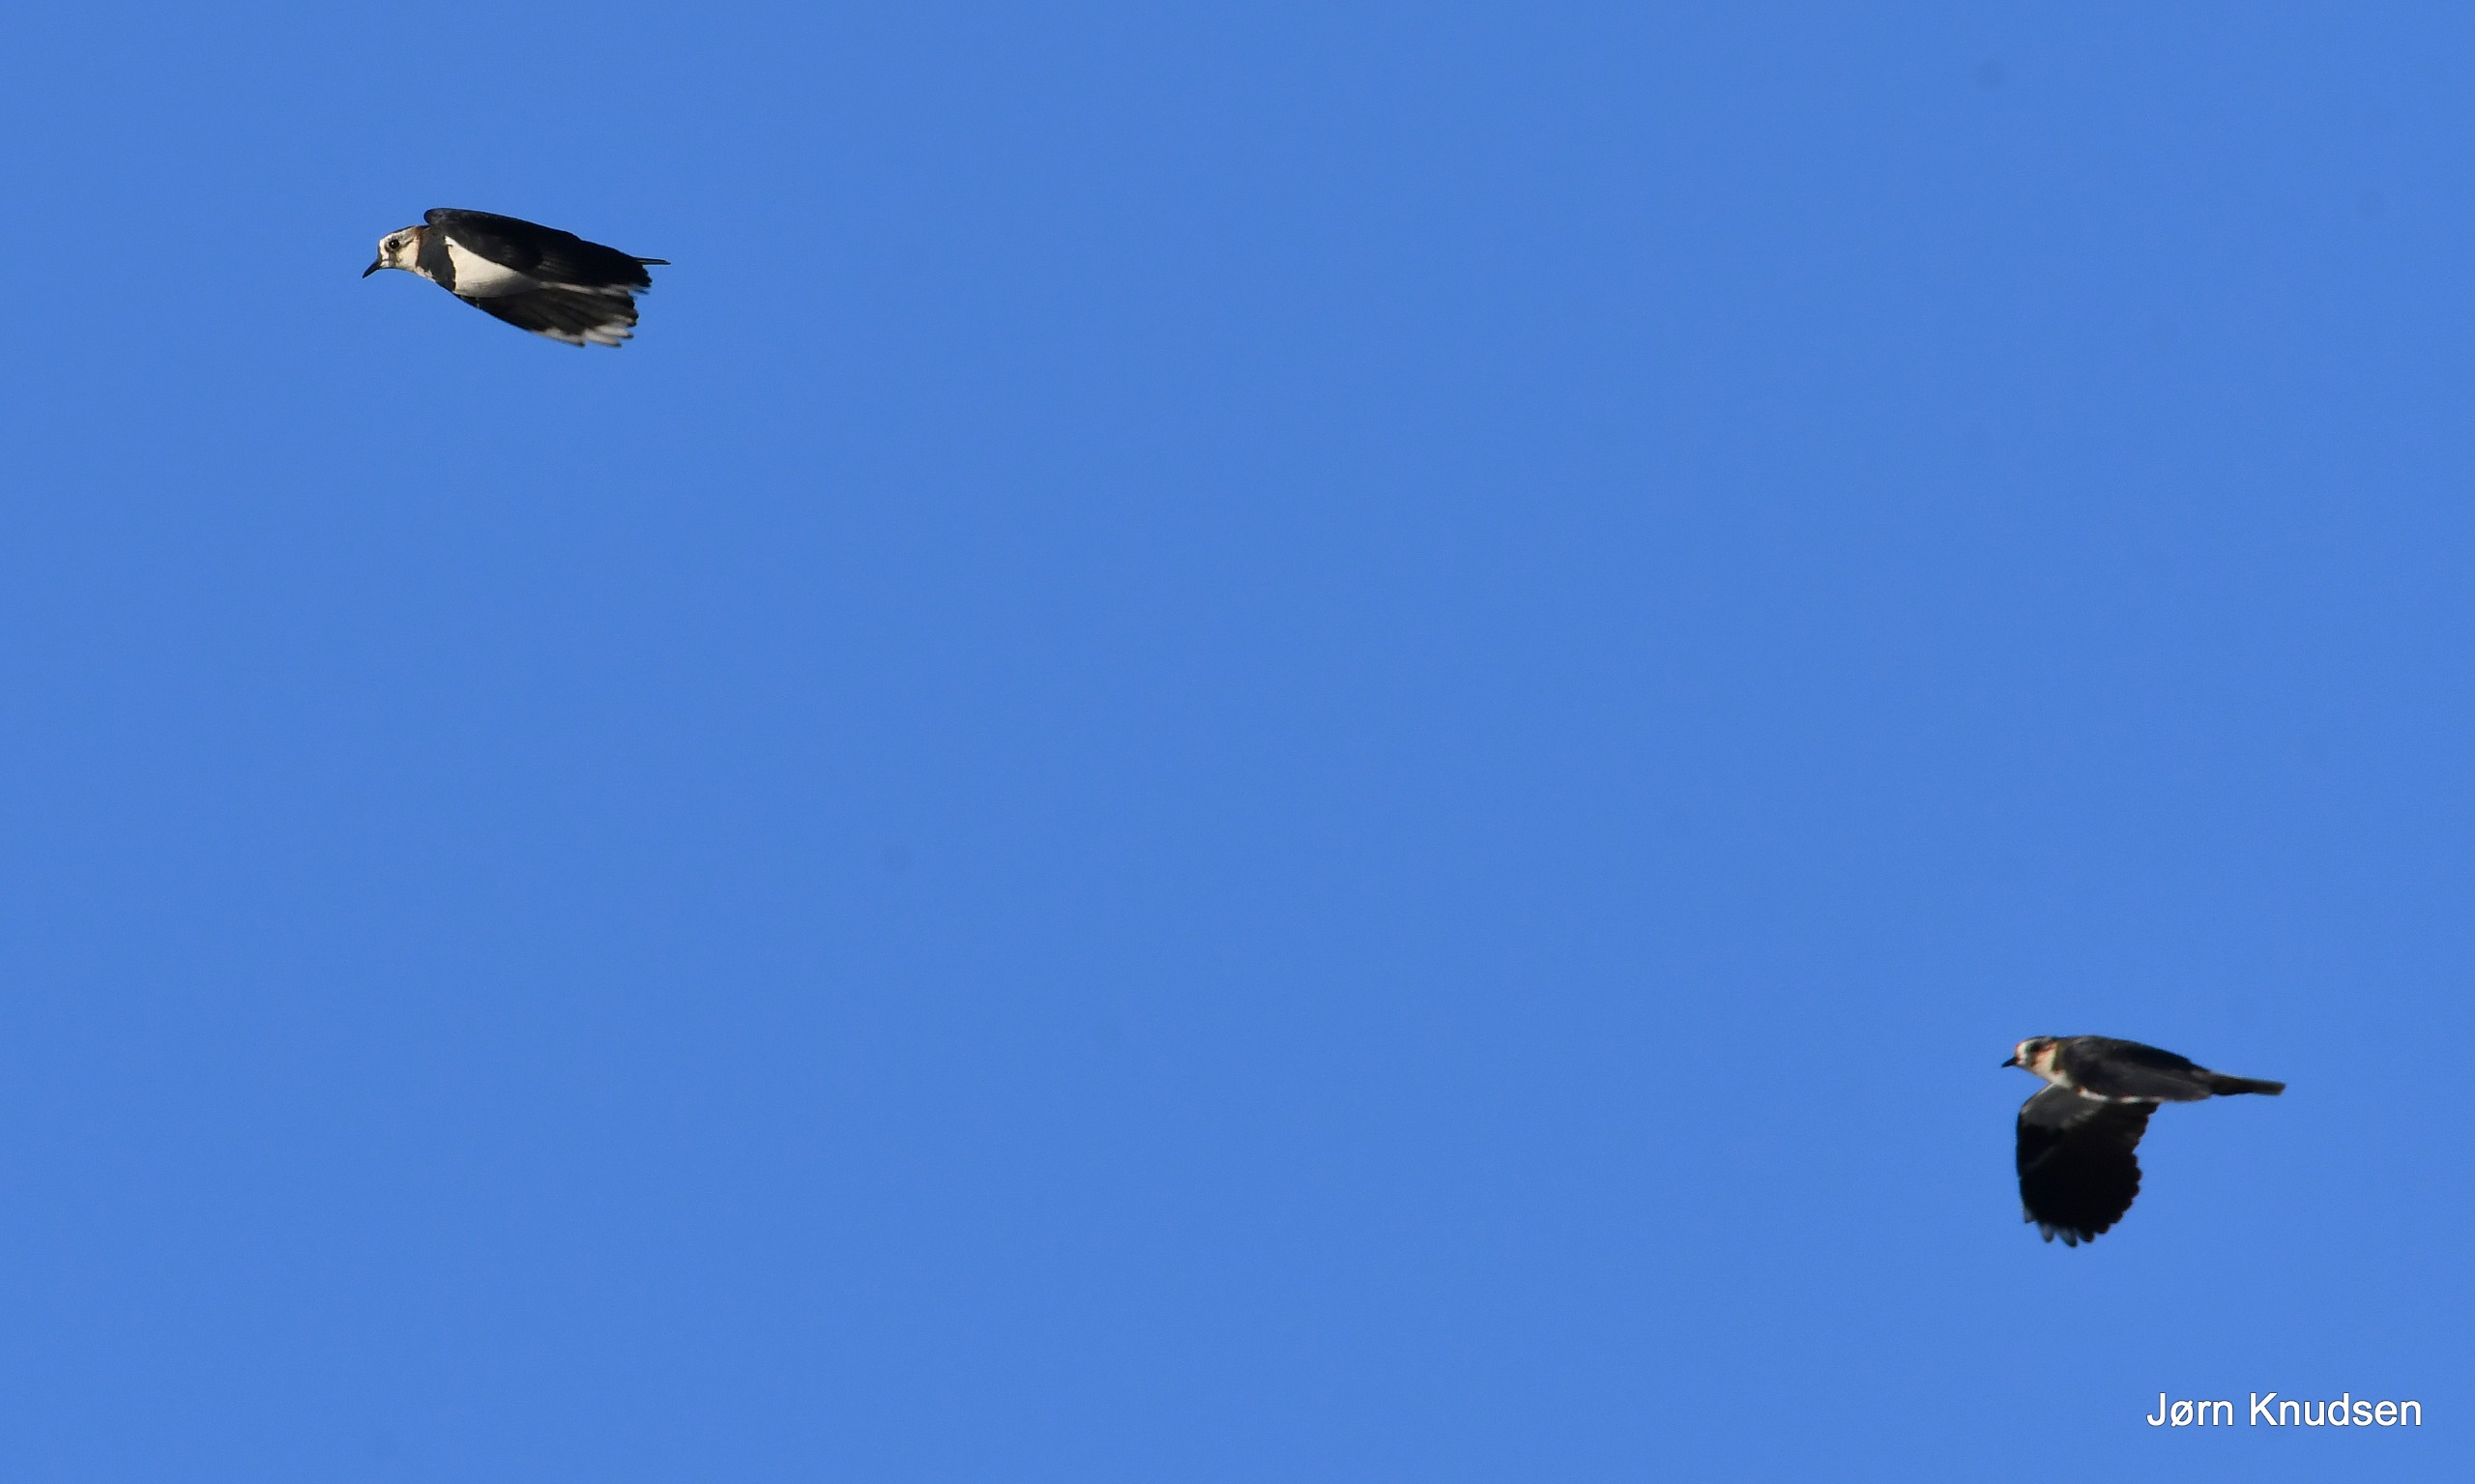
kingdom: Animalia
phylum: Chordata
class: Aves
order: Charadriiformes
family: Charadriidae
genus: Vanellus
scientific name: Vanellus vanellus
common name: Vibe
